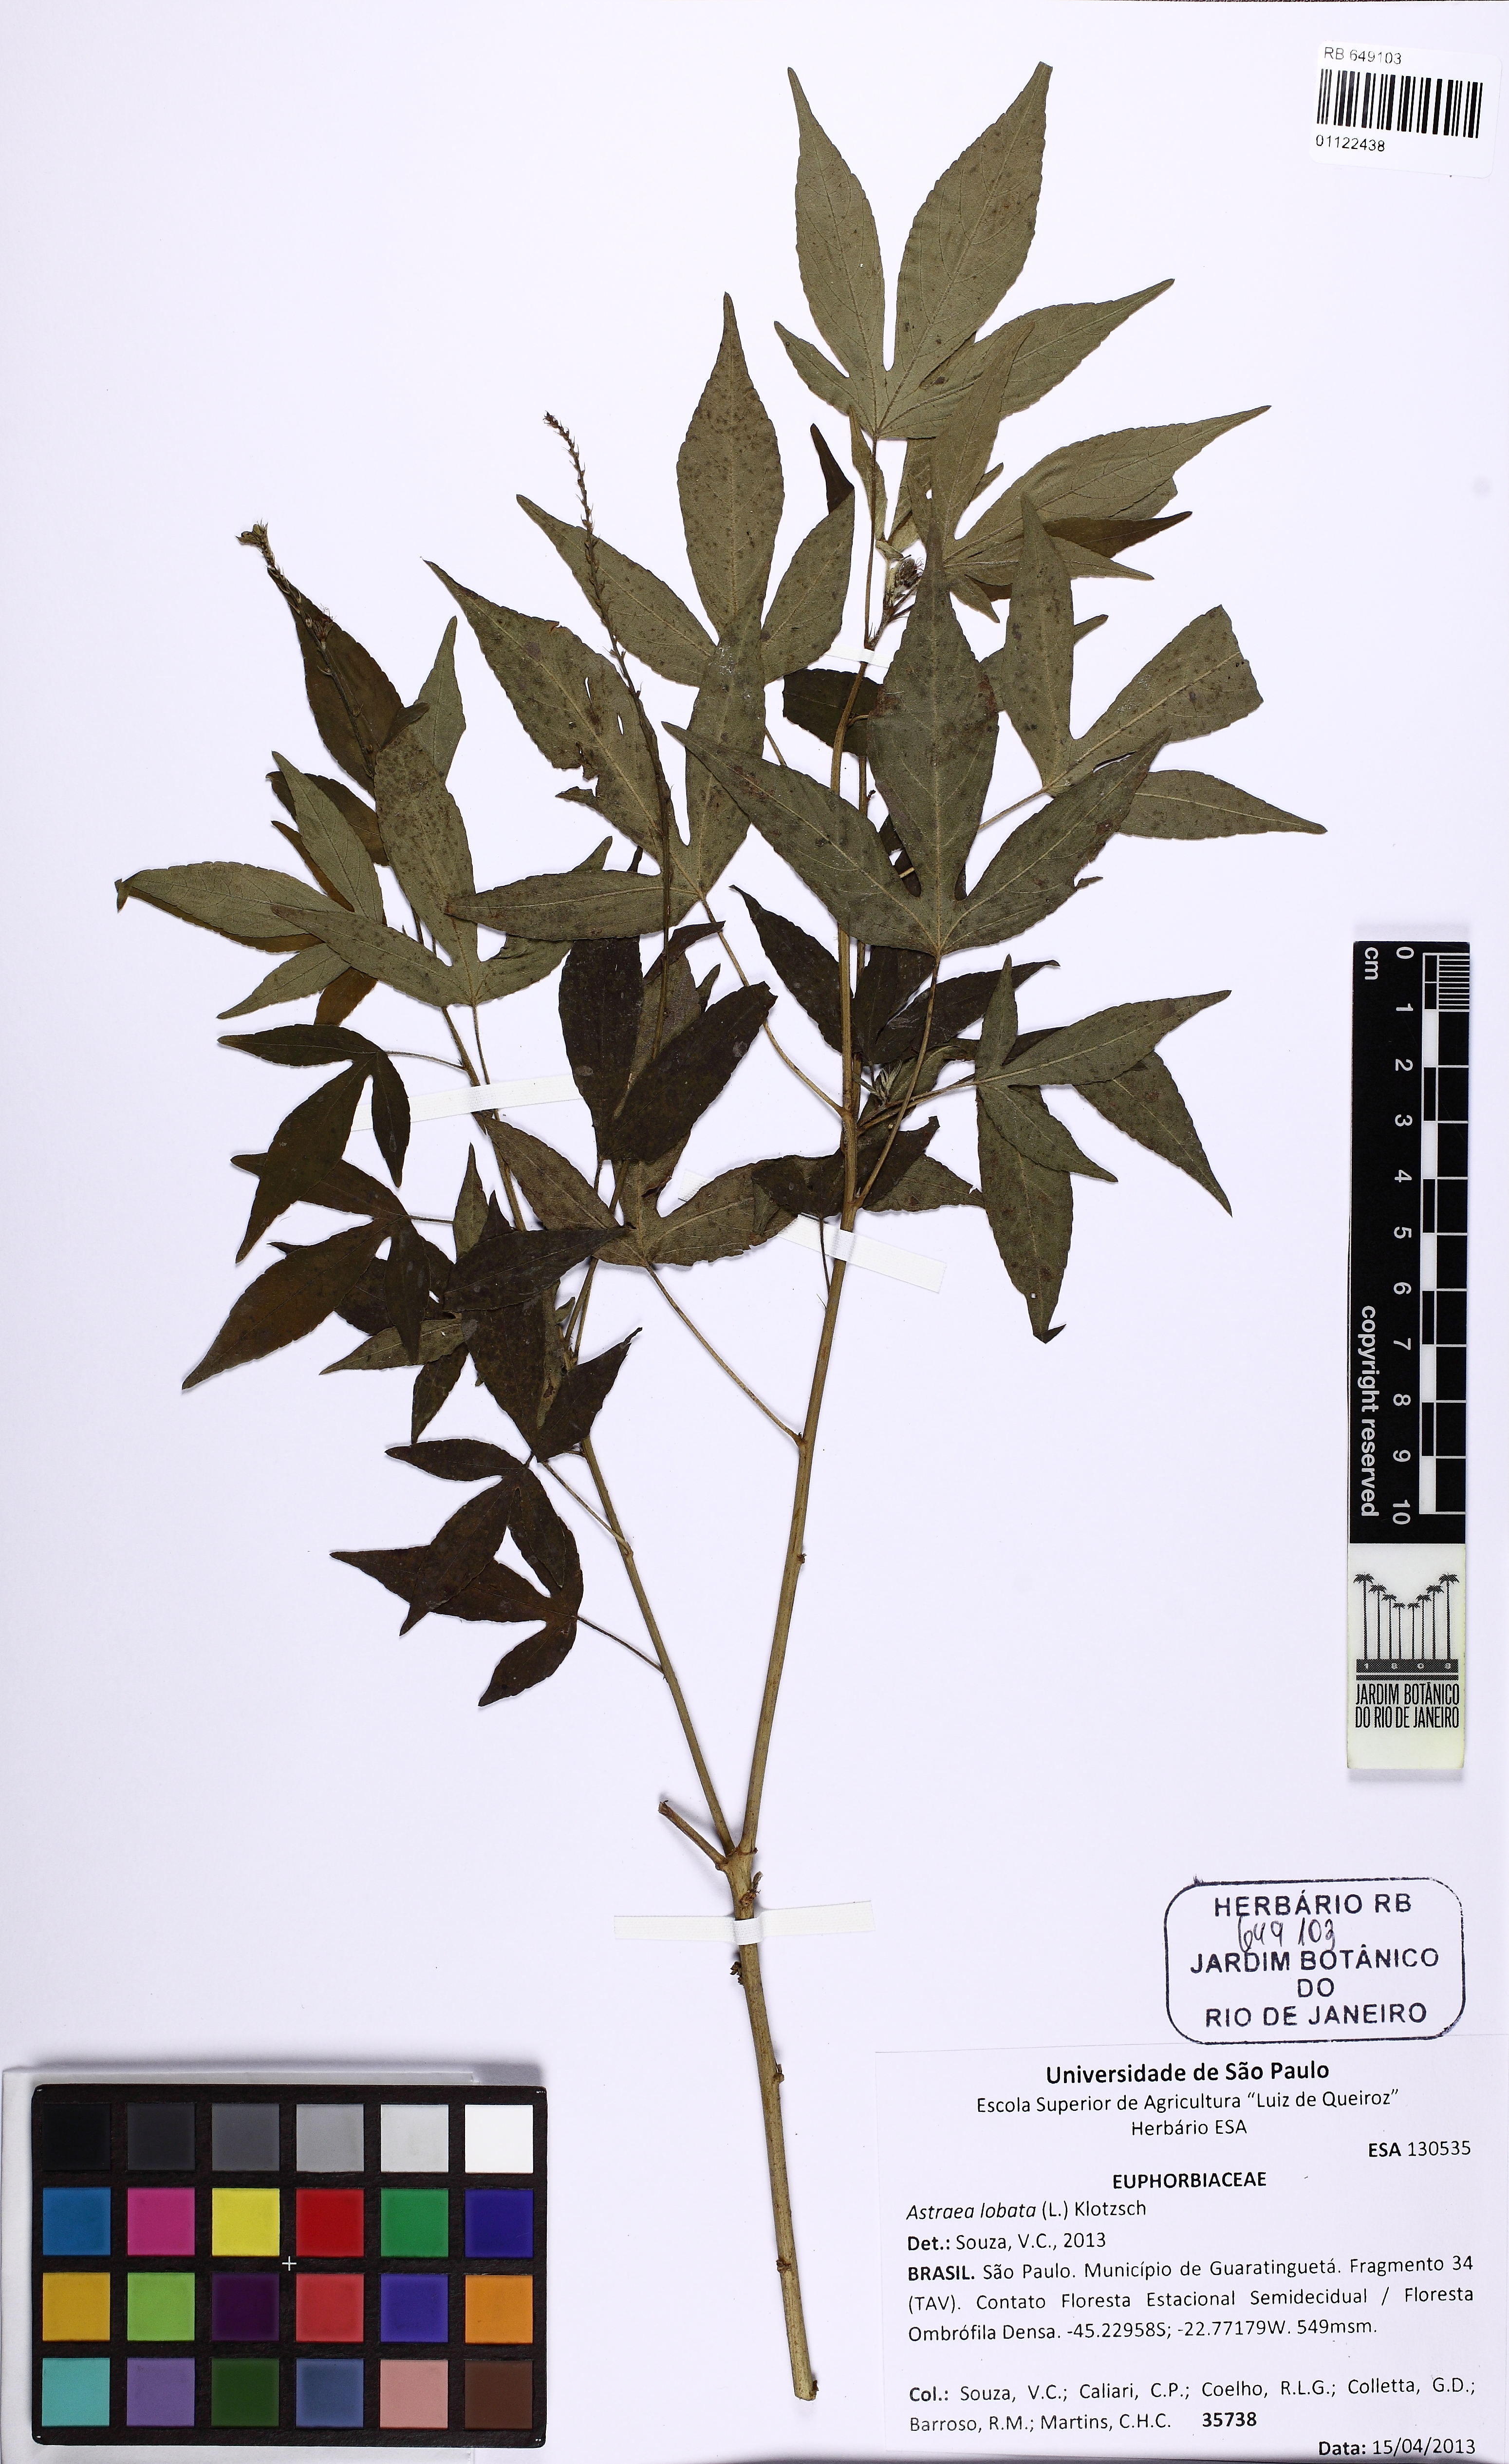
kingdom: Plantae
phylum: Tracheophyta
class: Magnoliopsida
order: Malpighiales
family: Euphorbiaceae
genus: Astraea
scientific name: Astraea jatropha
